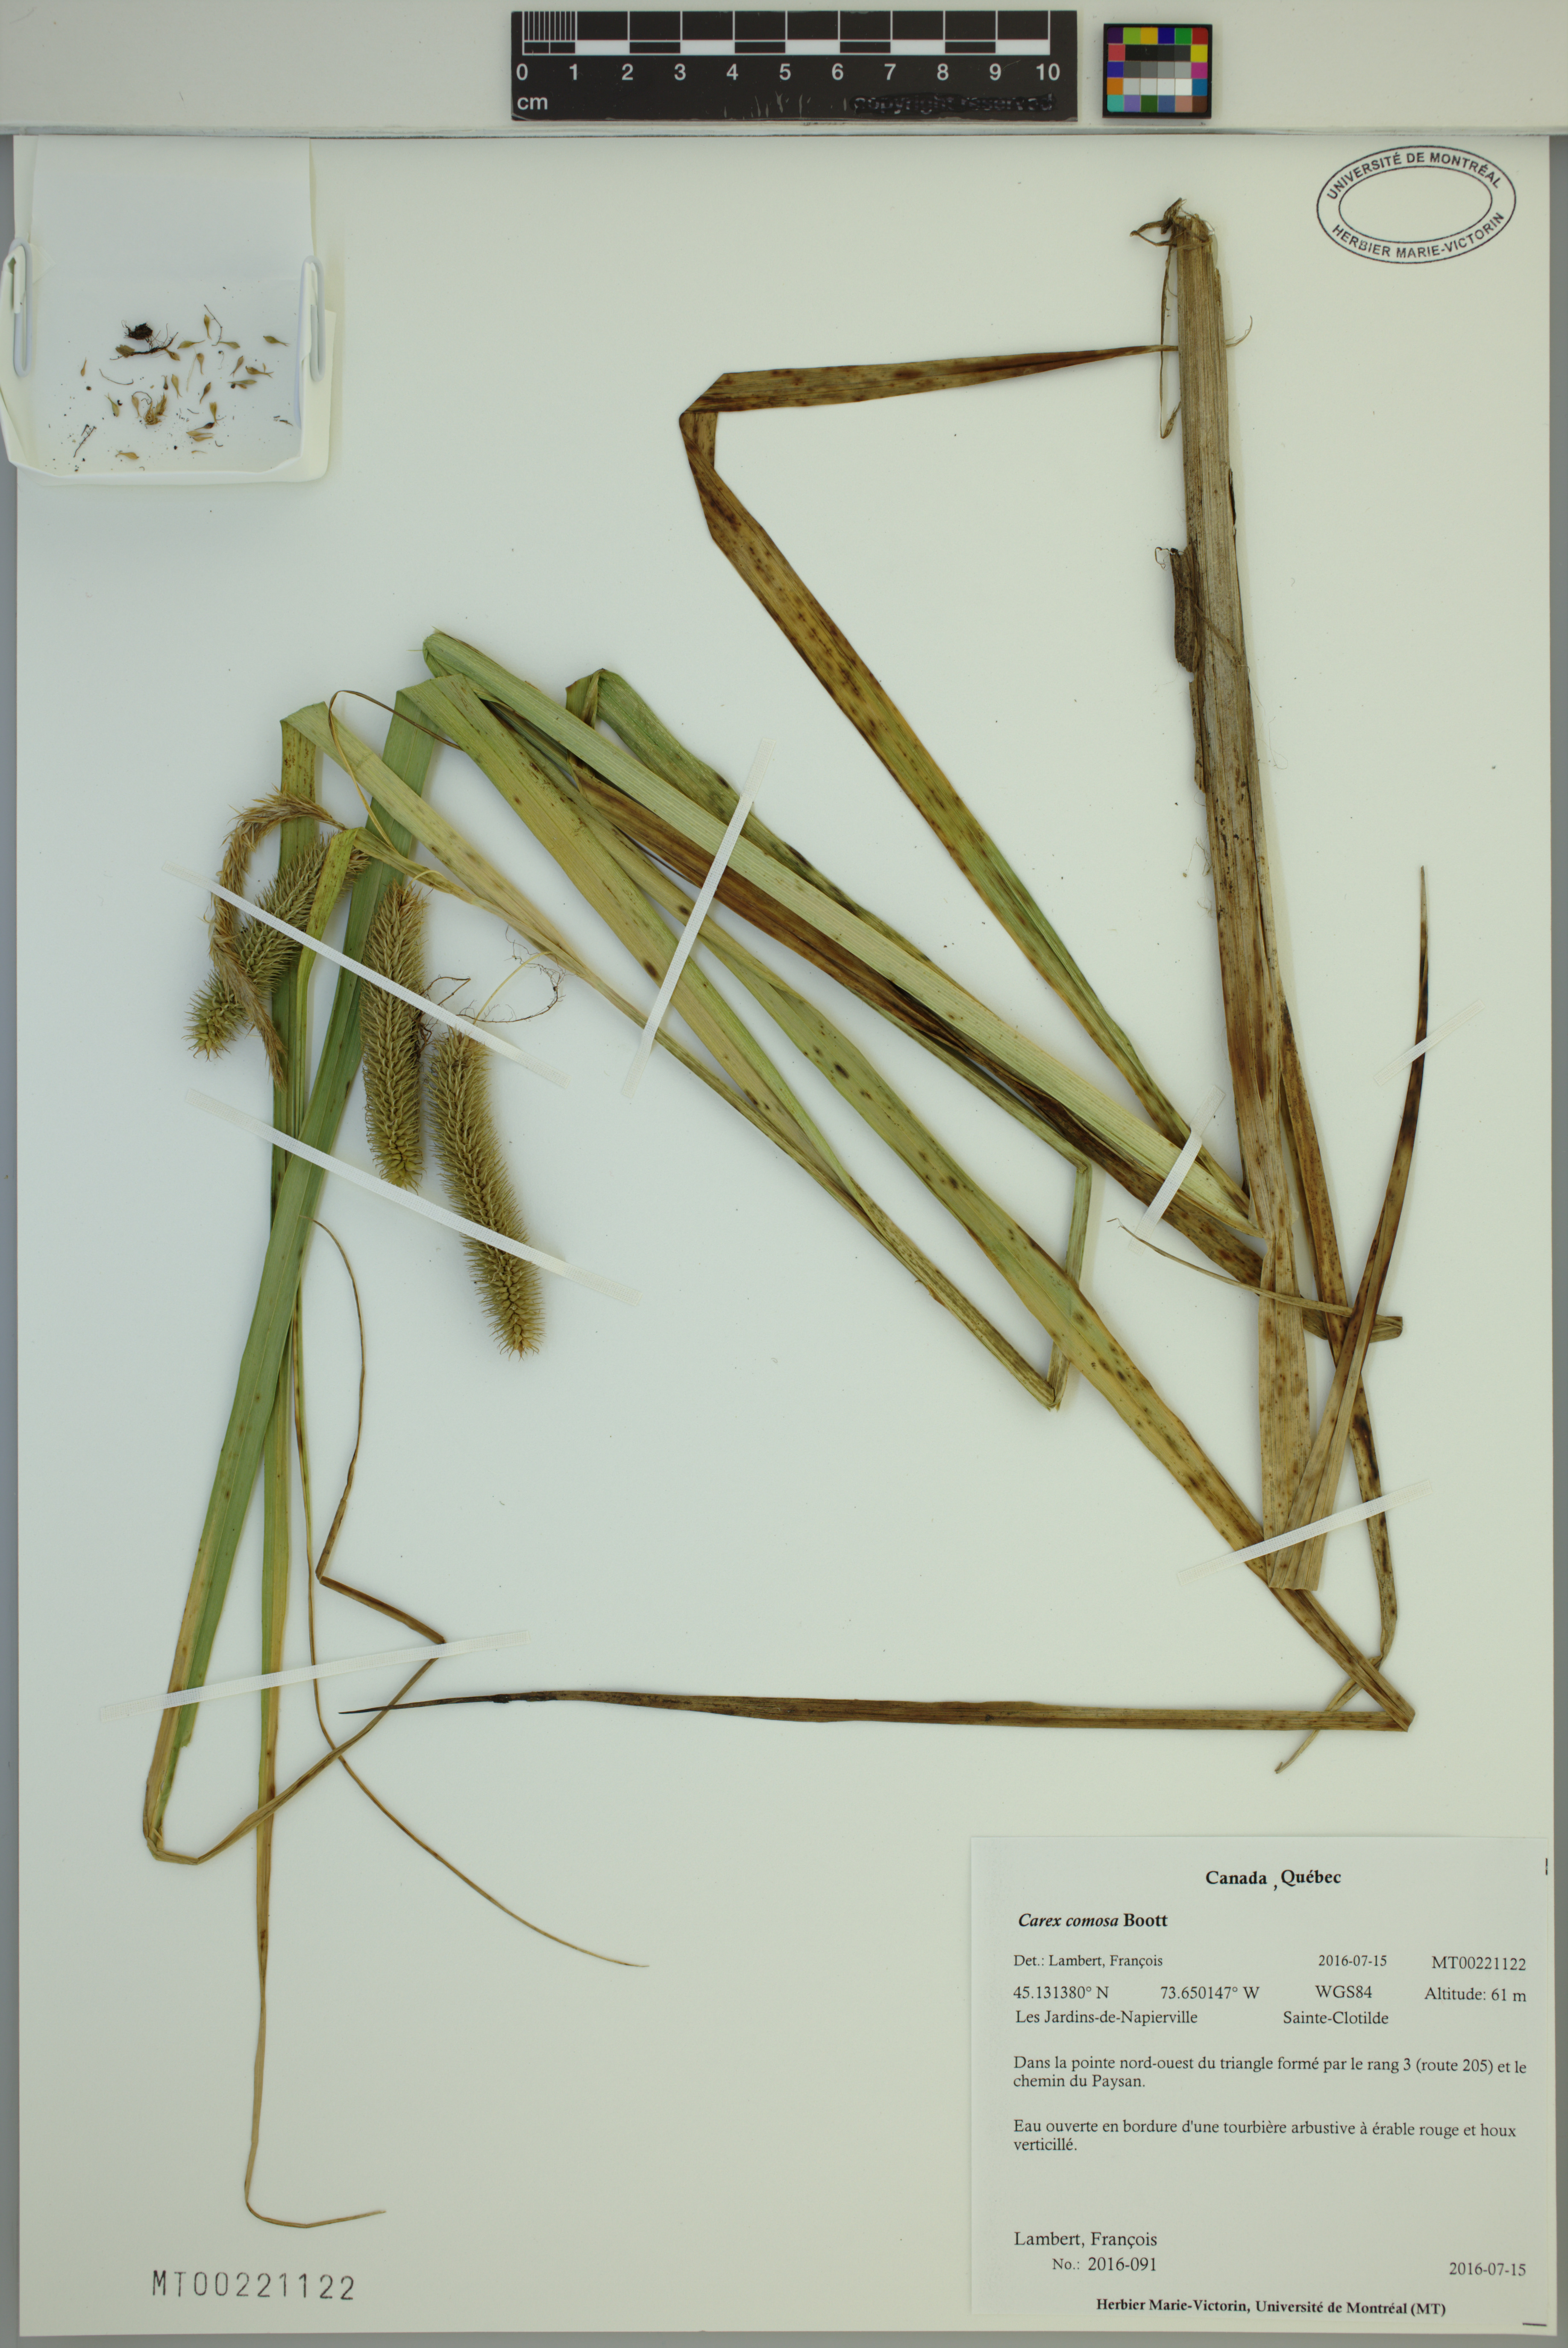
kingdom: Plantae
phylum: Tracheophyta
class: Liliopsida
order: Poales
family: Cyperaceae
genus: Carex
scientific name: Carex comosa
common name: Bristly sedge
